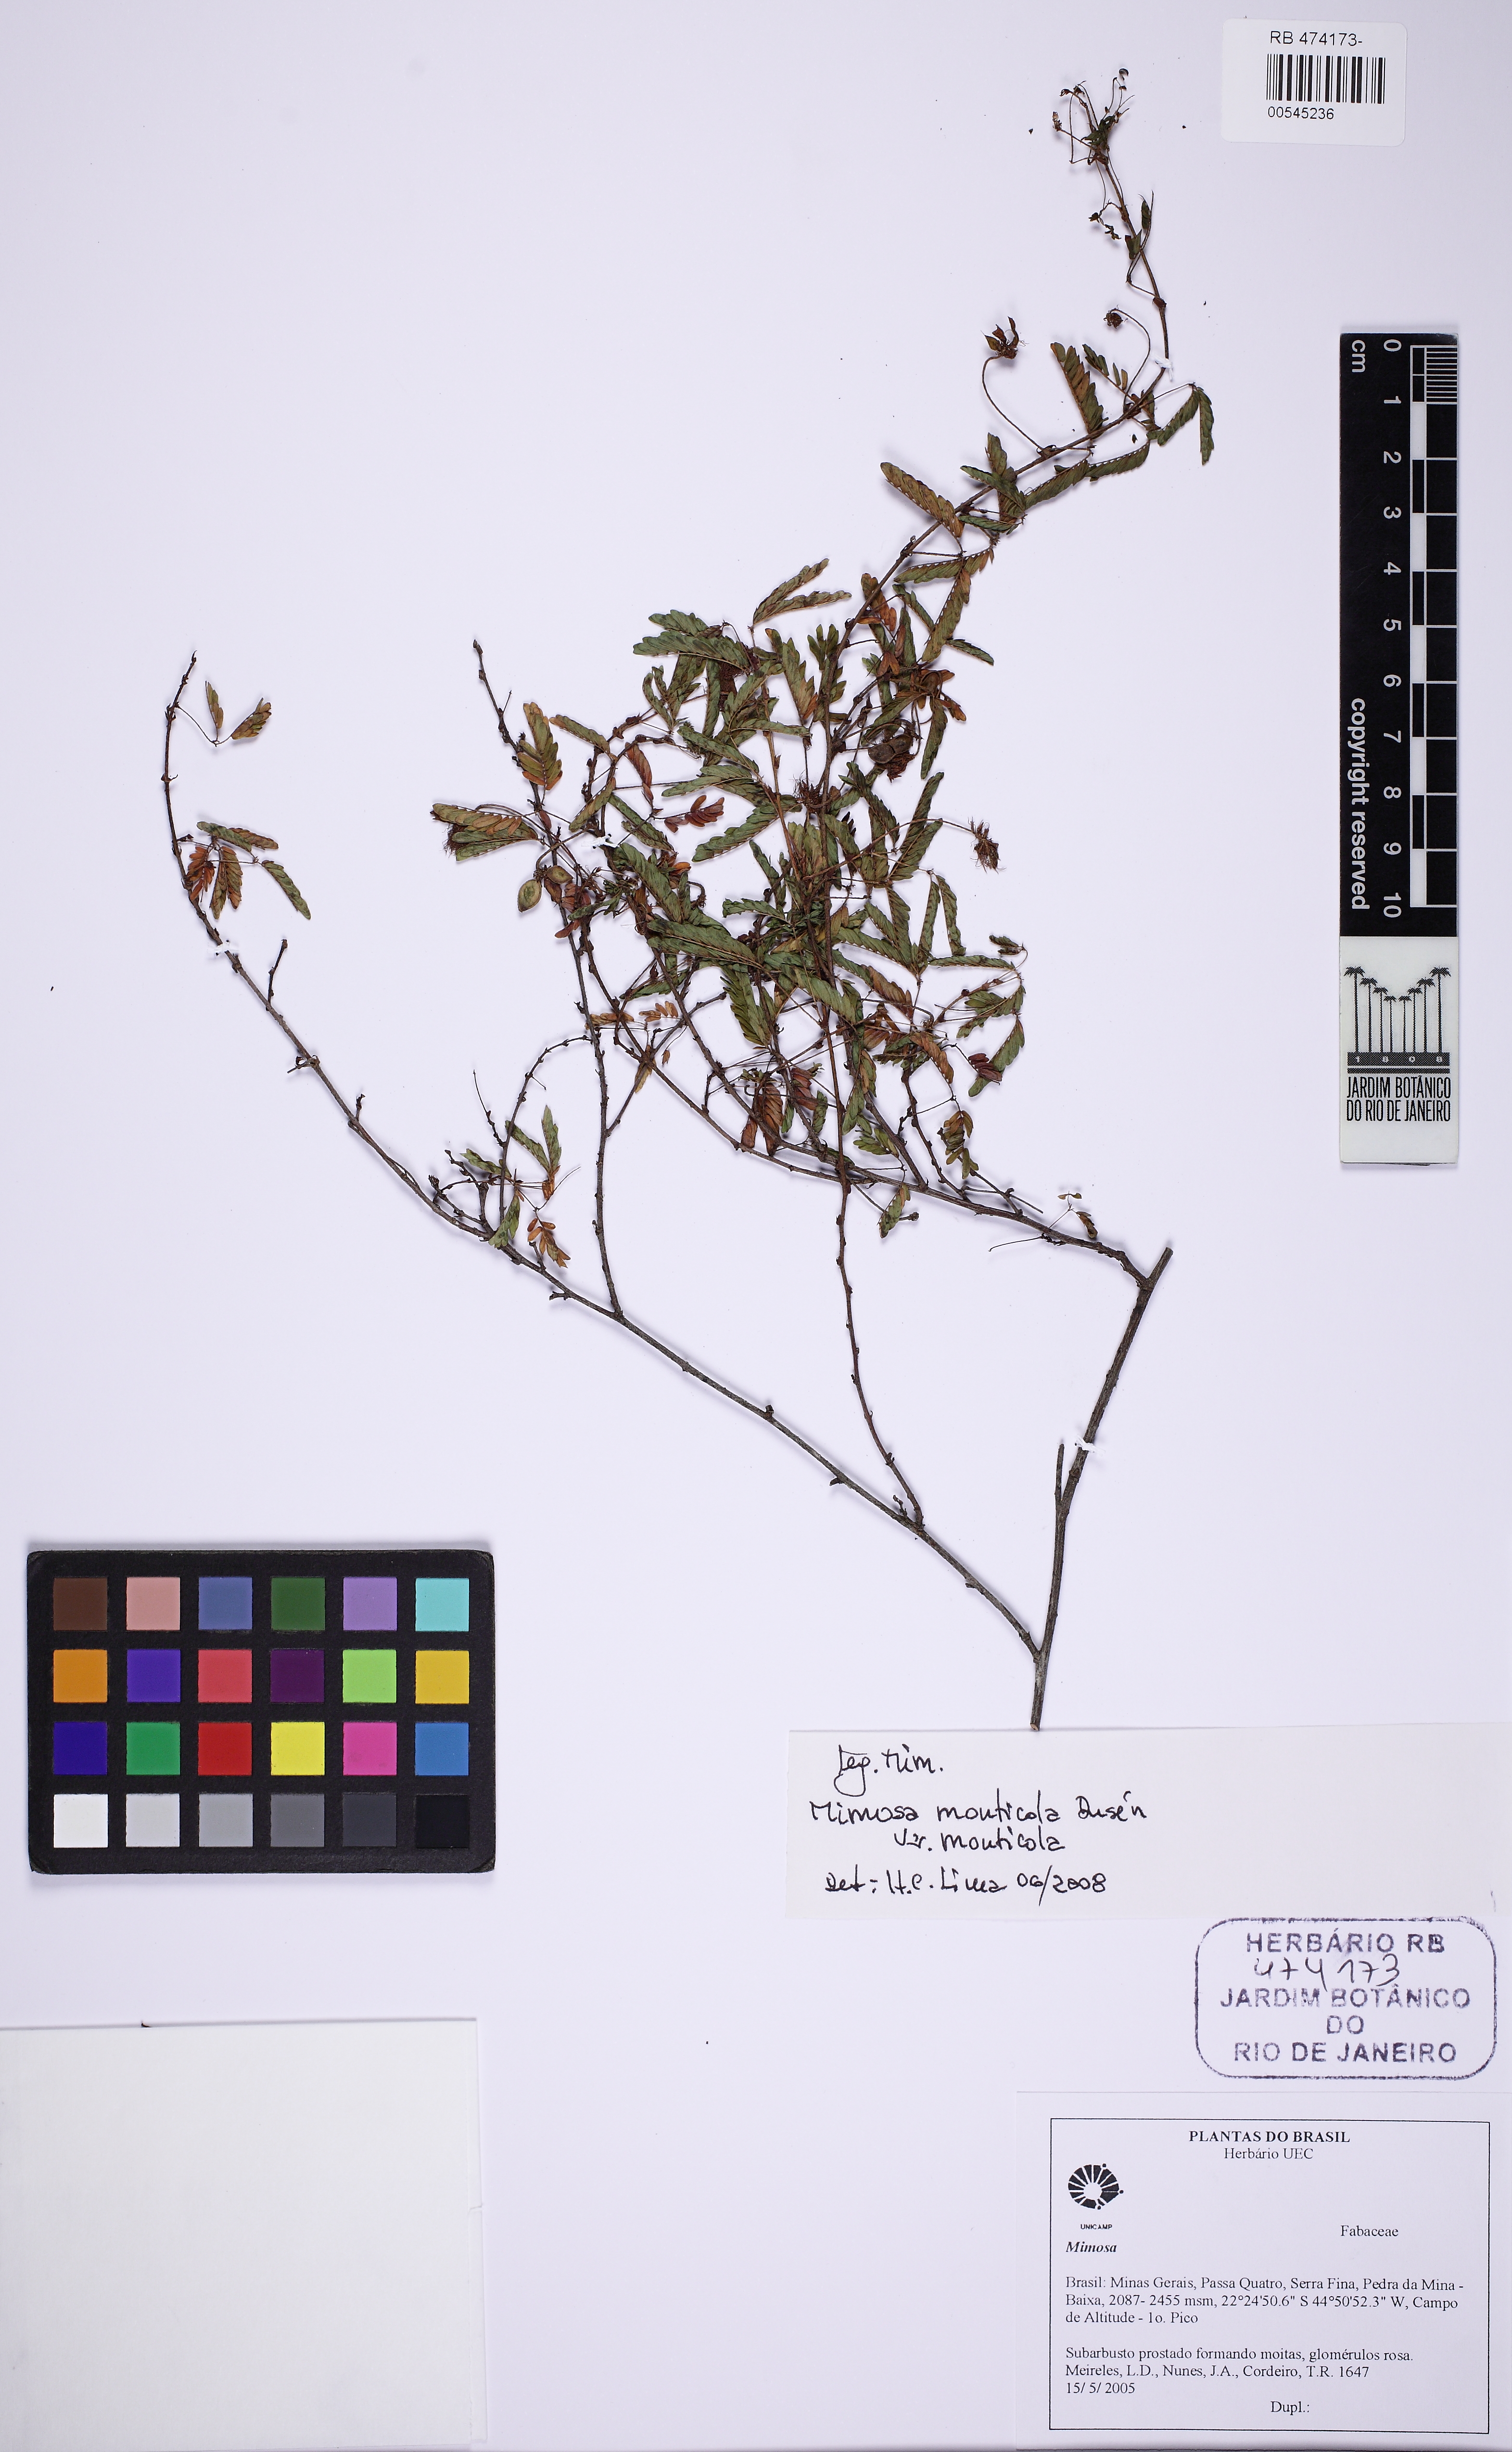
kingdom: Plantae
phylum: Tracheophyta
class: Magnoliopsida
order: Fabales
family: Fabaceae
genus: Mimosa
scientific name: Mimosa monticola
